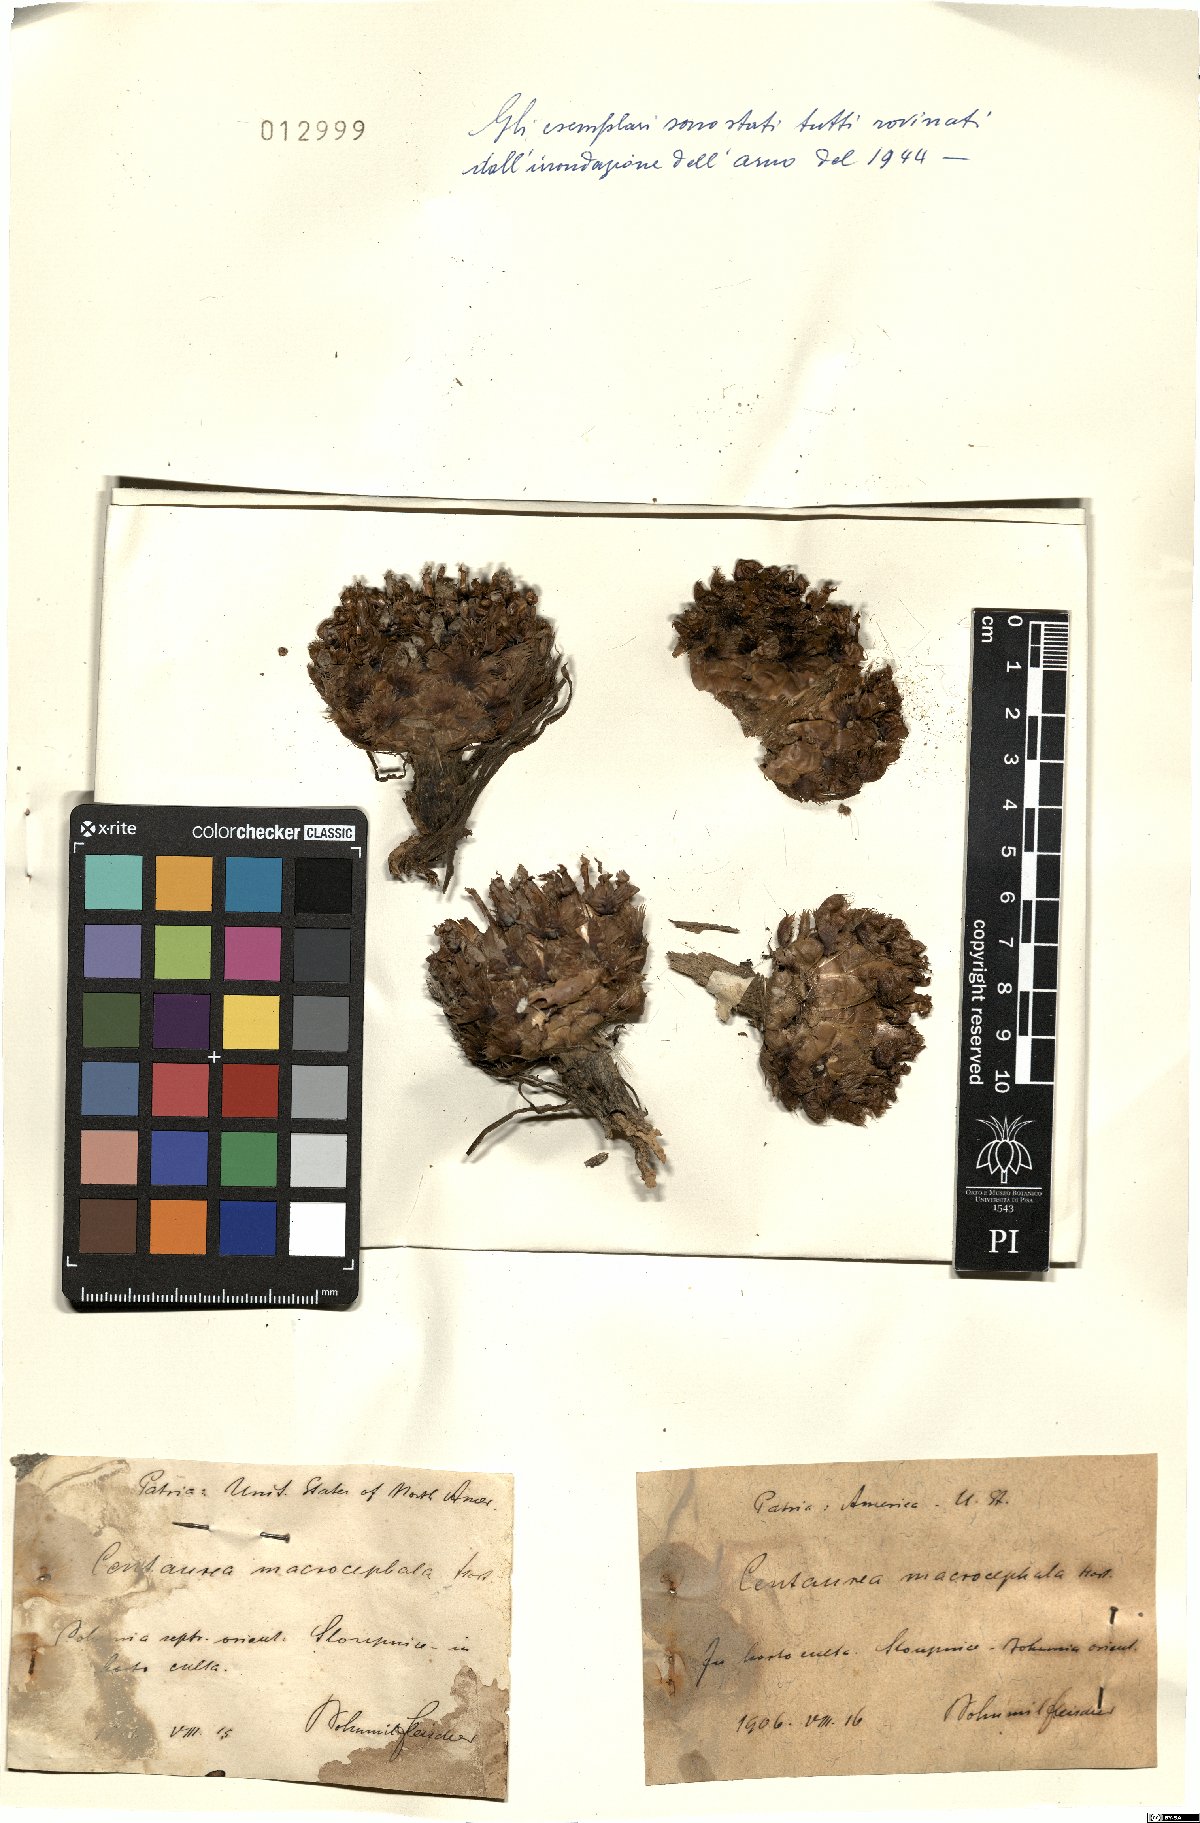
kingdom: Plantae
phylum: Tracheophyta
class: Magnoliopsida
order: Asterales
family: Asteraceae
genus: Centaurea
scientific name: Centaurea macrocephala
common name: Big-head knapweed
